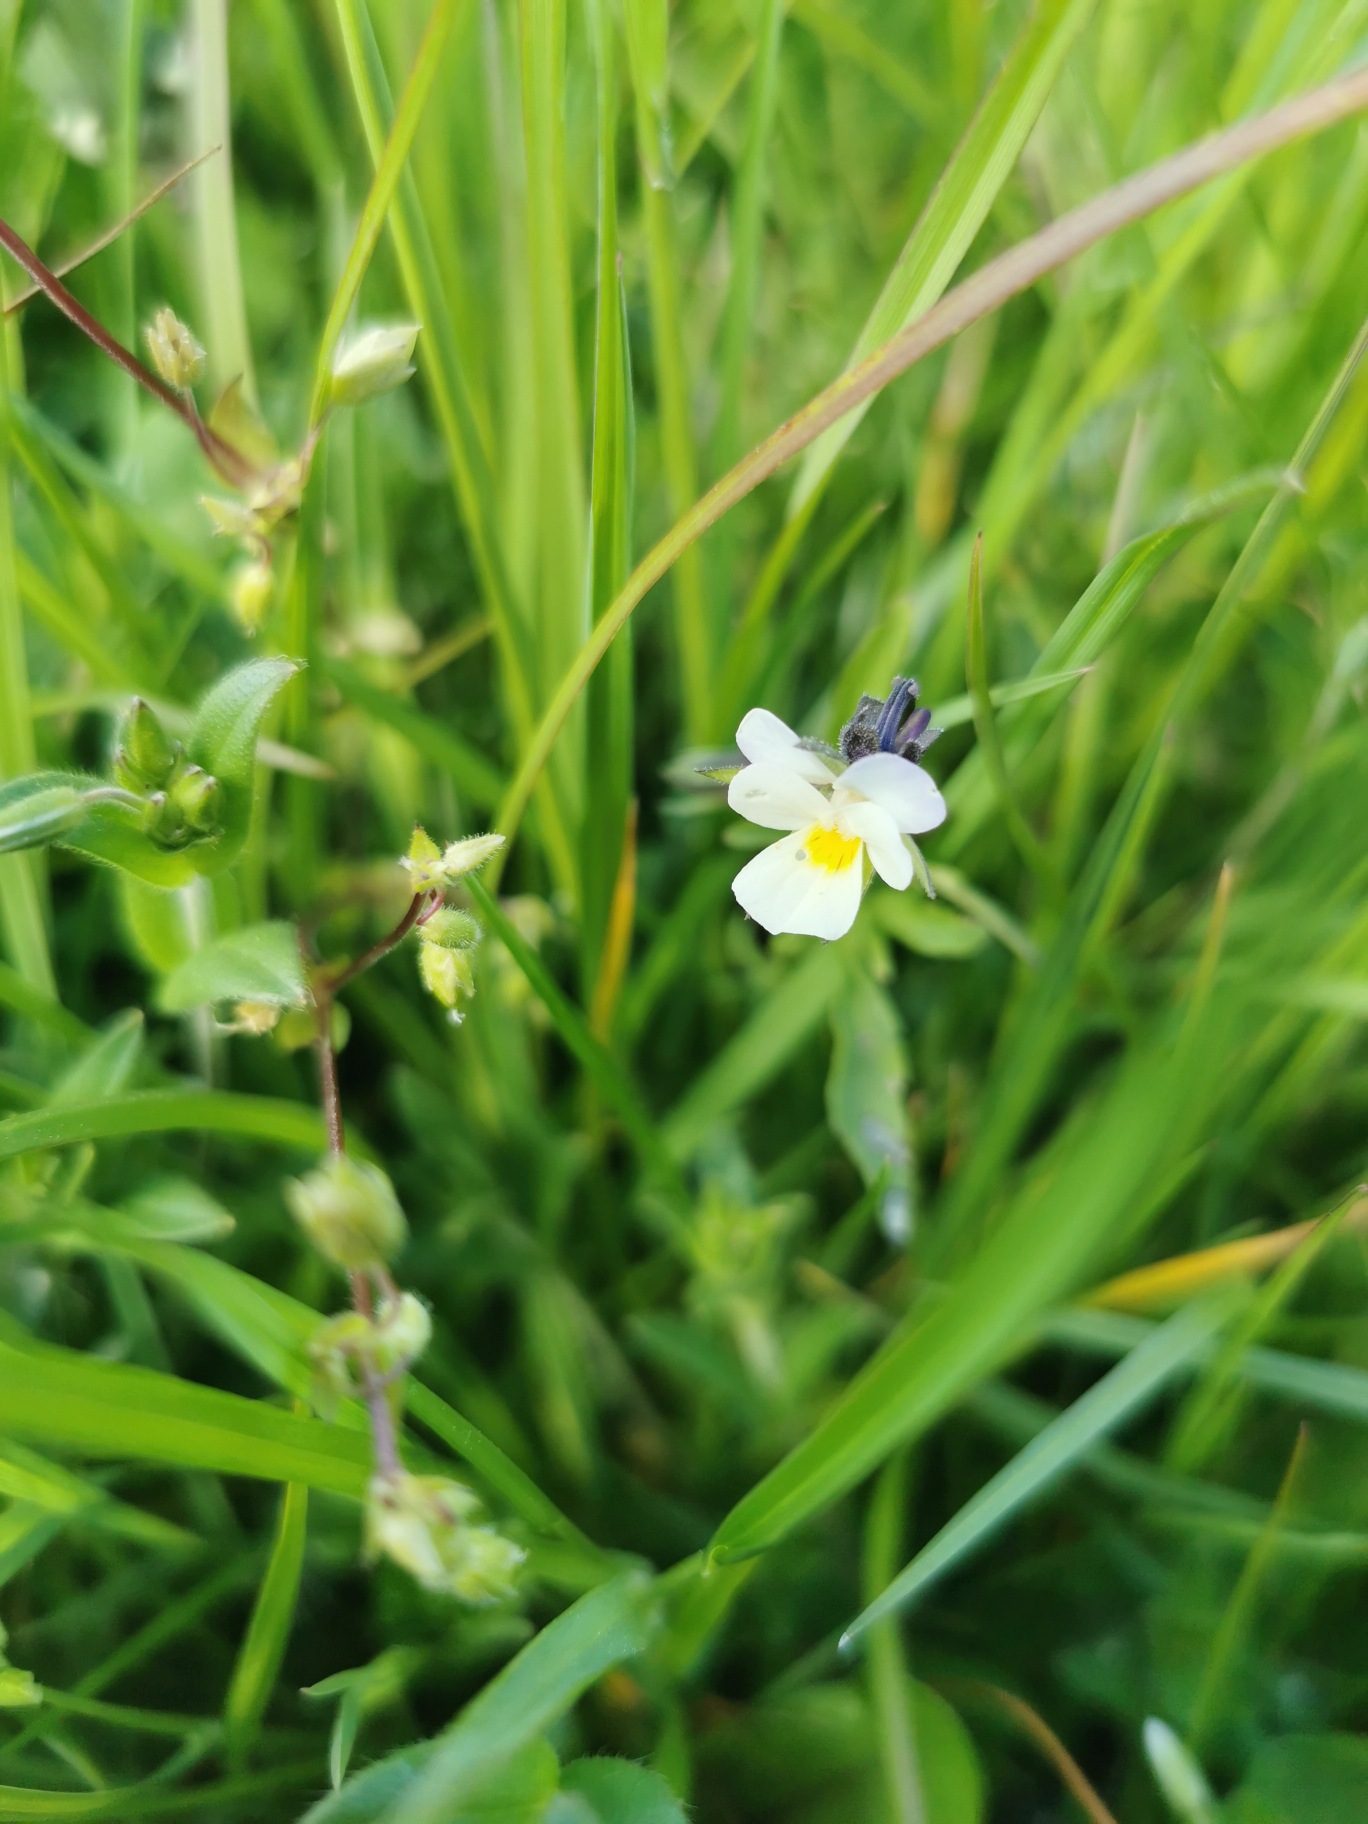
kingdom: Plantae
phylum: Tracheophyta
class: Magnoliopsida
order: Malpighiales
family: Violaceae
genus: Viola
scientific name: Viola arvensis
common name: Ager-stedmoderblomst
